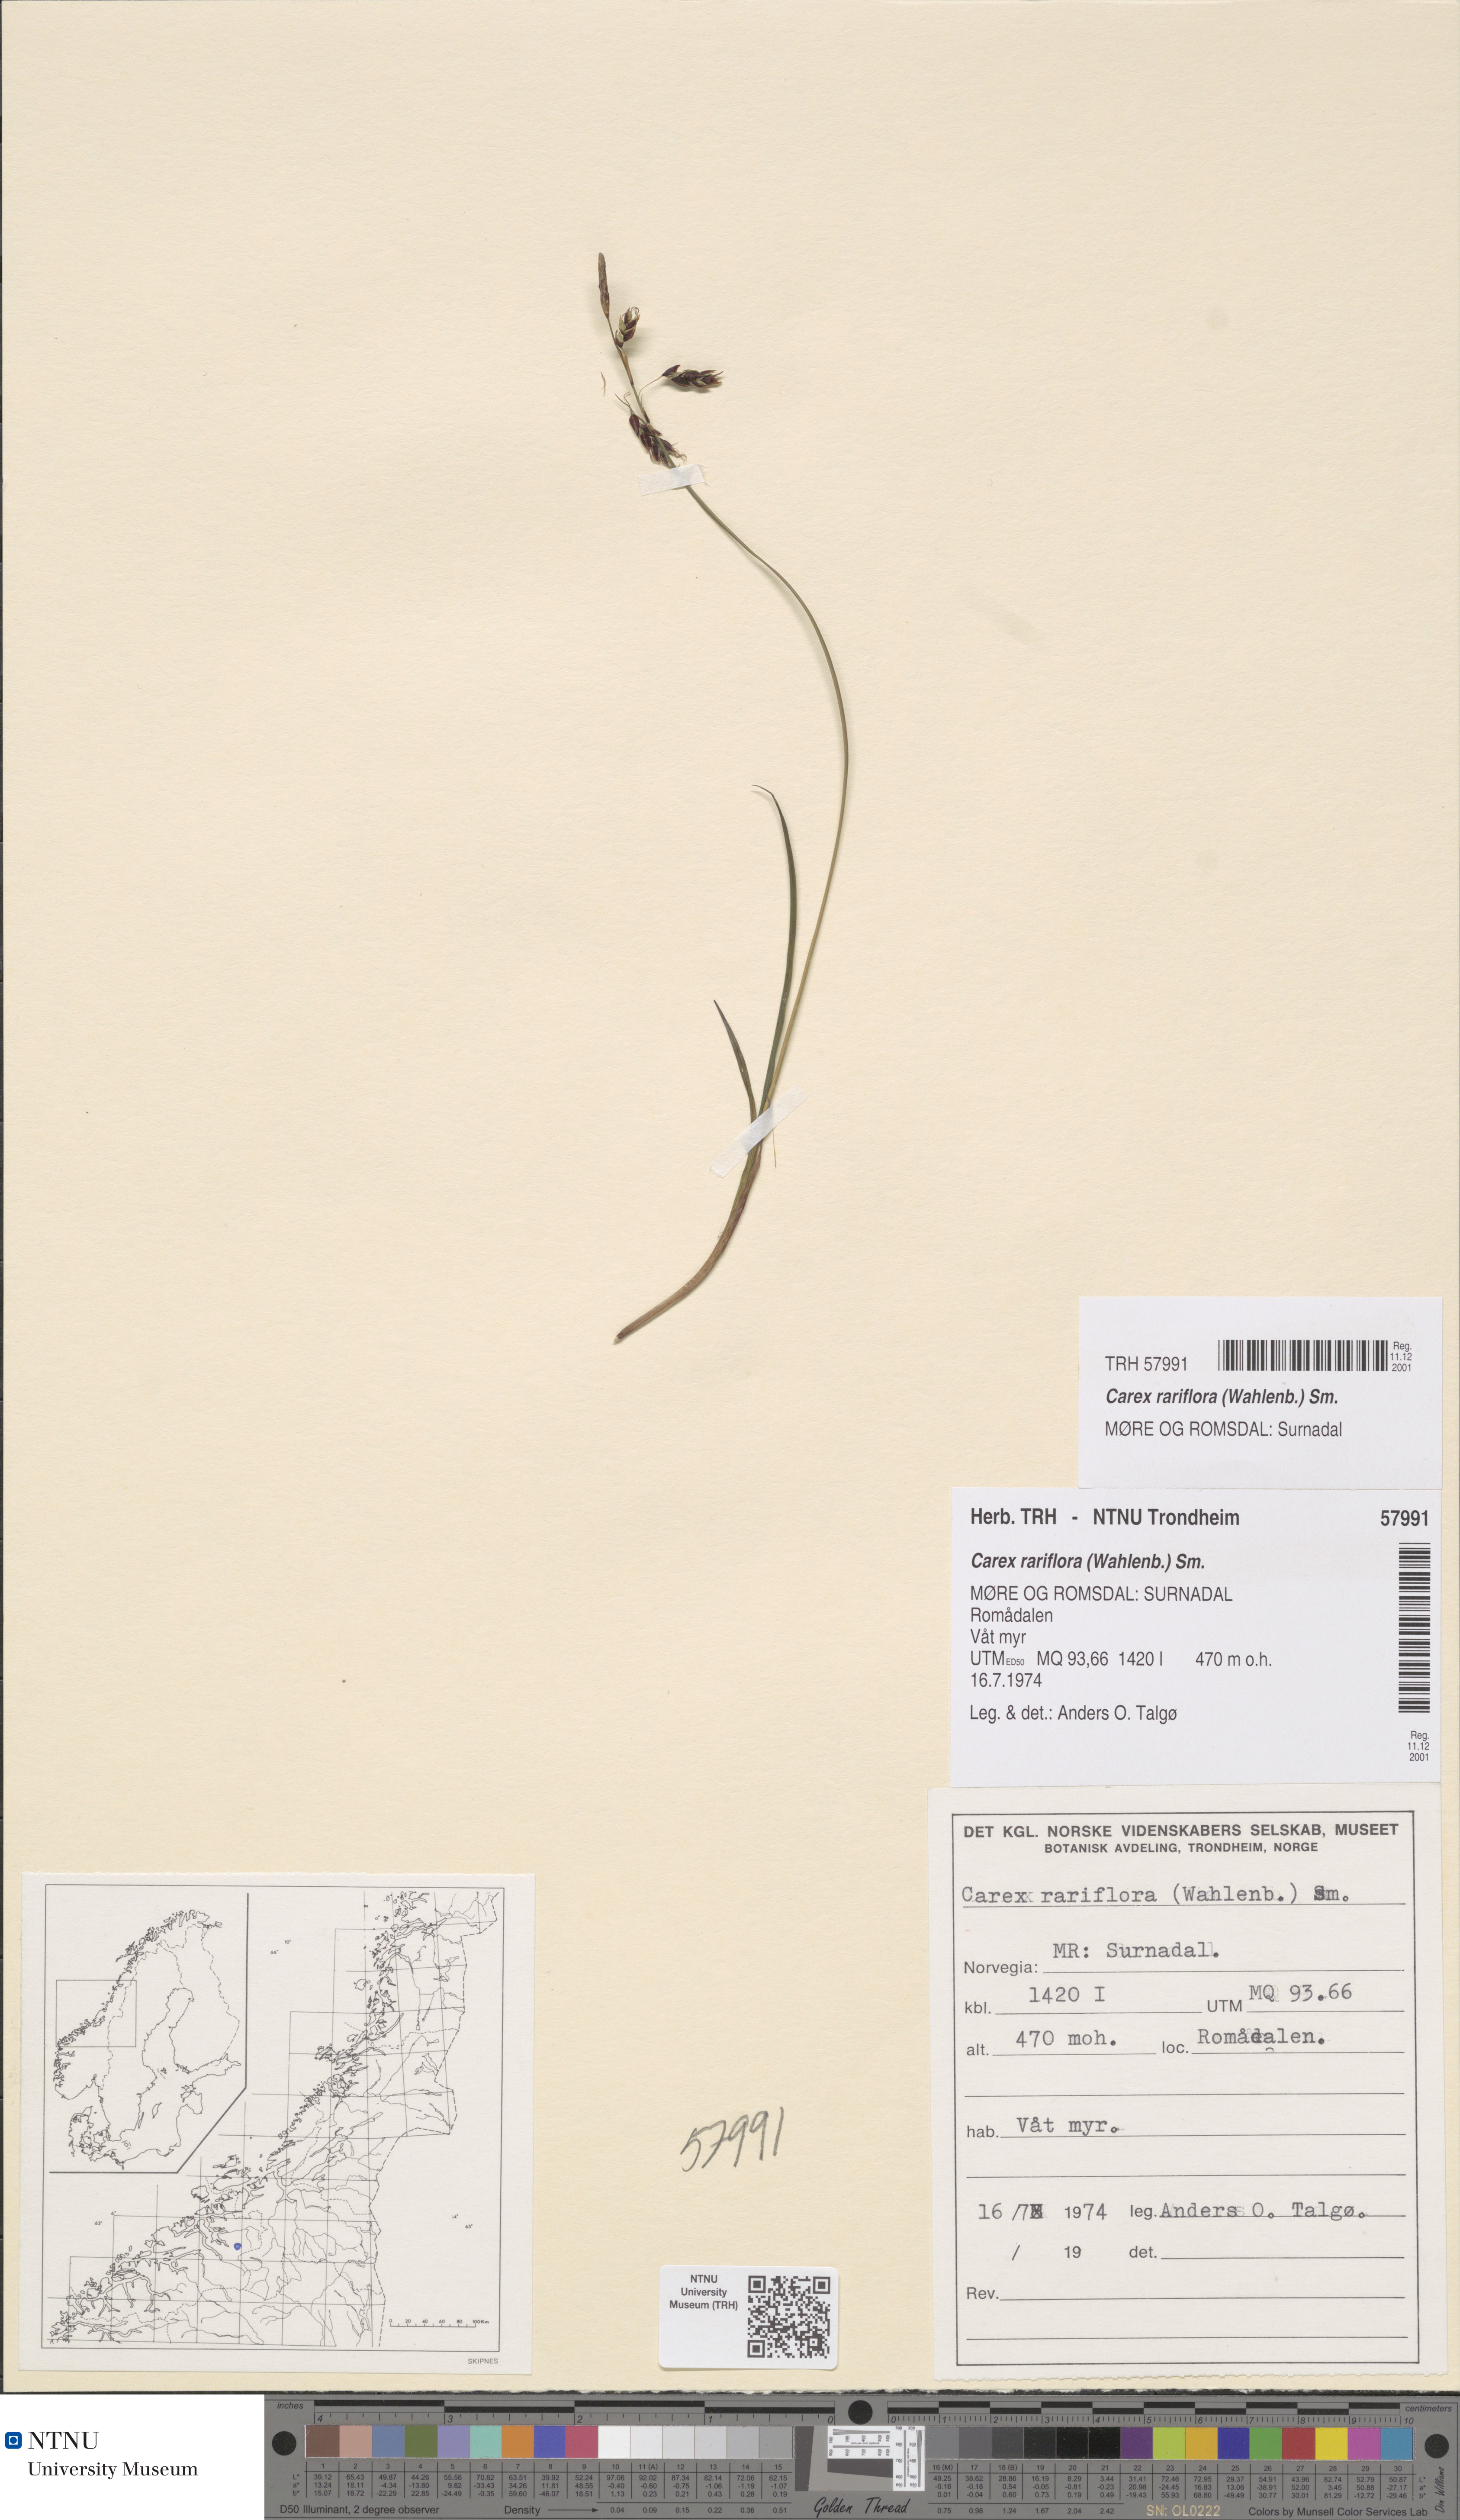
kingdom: Plantae
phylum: Tracheophyta
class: Liliopsida
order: Poales
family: Cyperaceae
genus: Carex
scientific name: Carex rariflora
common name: Loose-flowered alpine sedge
